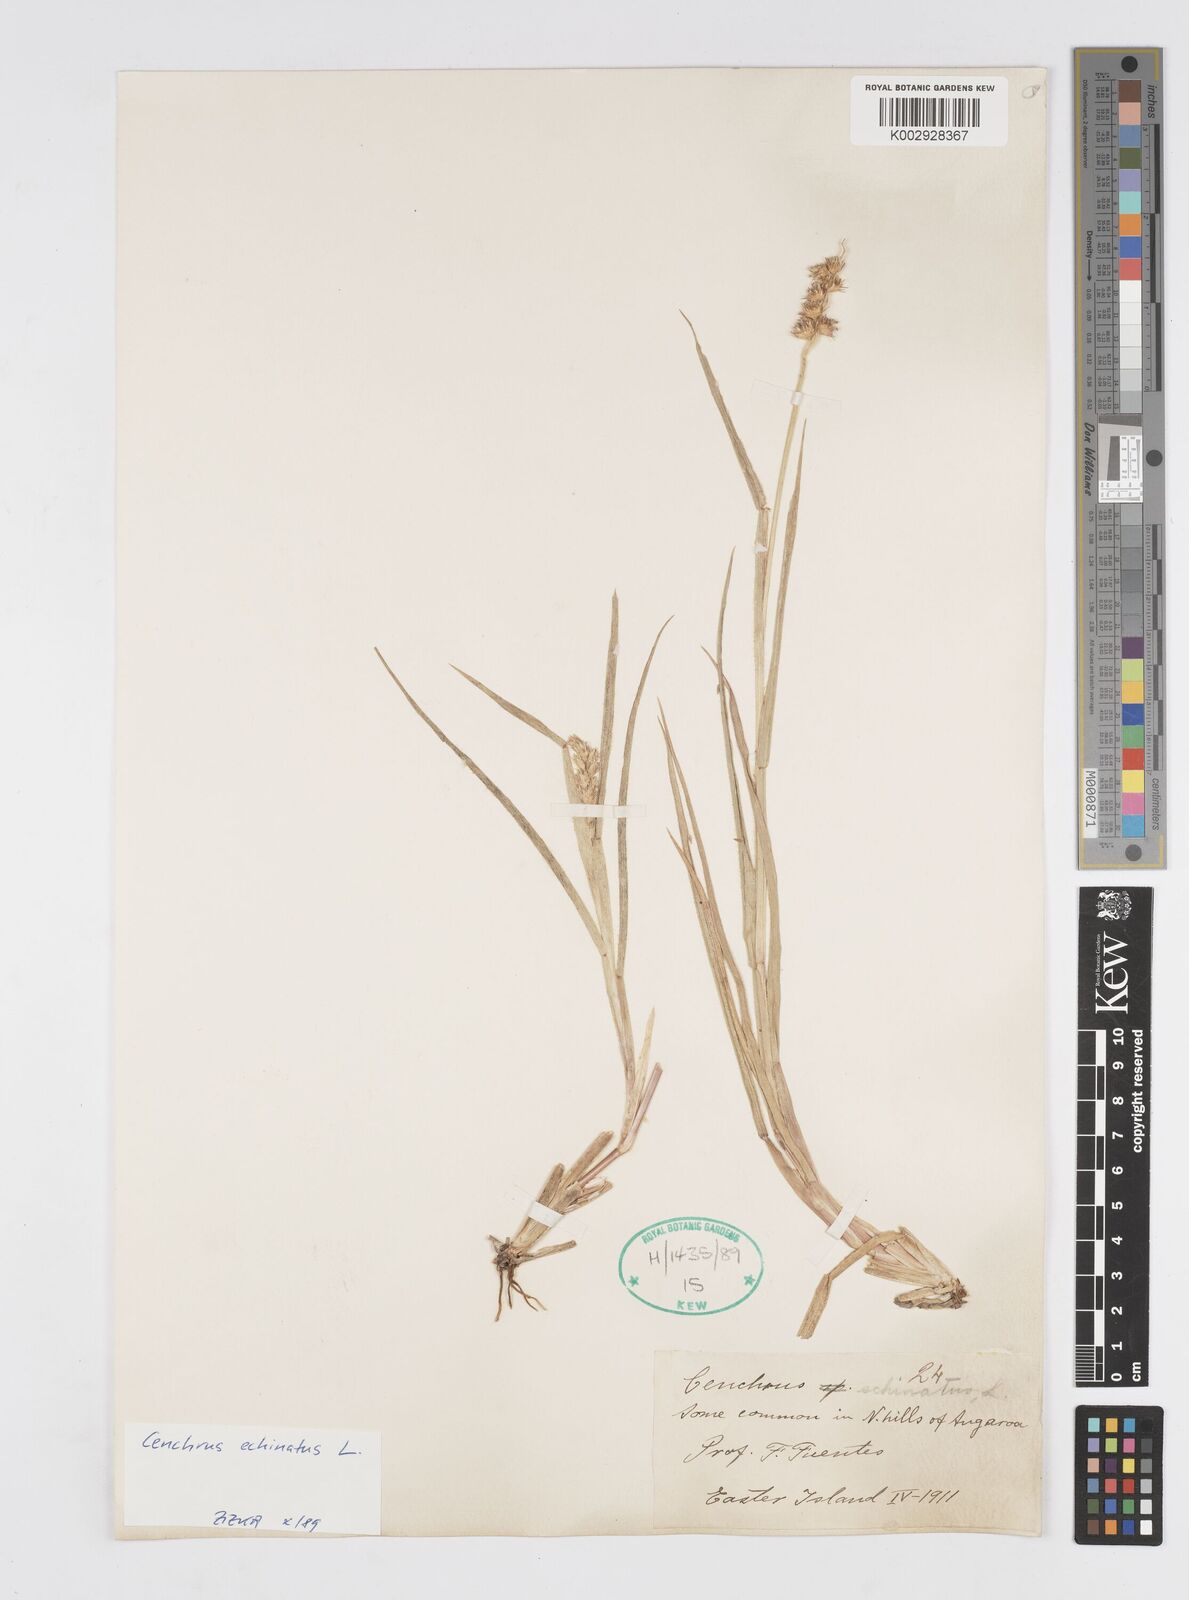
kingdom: Plantae
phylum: Tracheophyta
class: Liliopsida
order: Poales
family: Poaceae
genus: Cenchrus
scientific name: Cenchrus echinatus
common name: Southern sandbur
